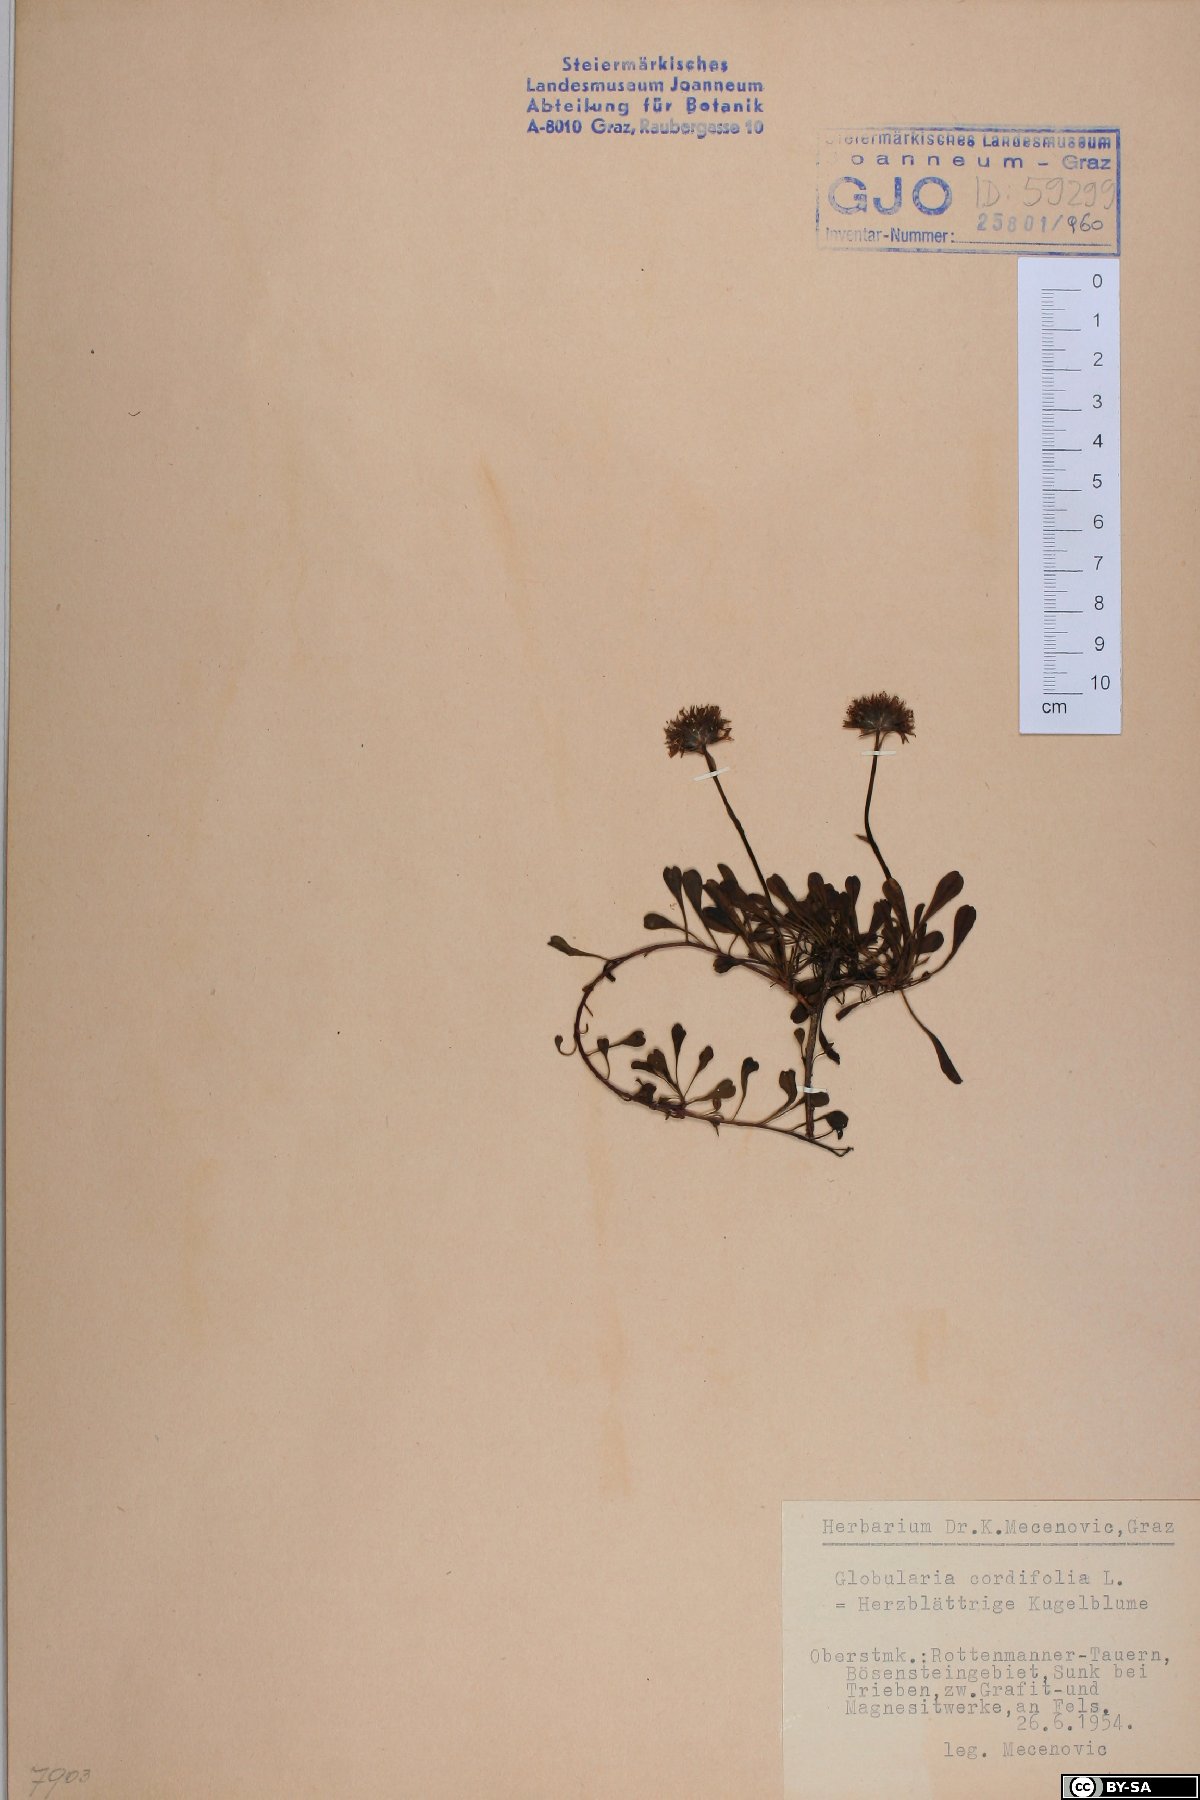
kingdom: Plantae
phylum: Tracheophyta
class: Magnoliopsida
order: Lamiales
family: Plantaginaceae
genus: Globularia
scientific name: Globularia cordifolia
